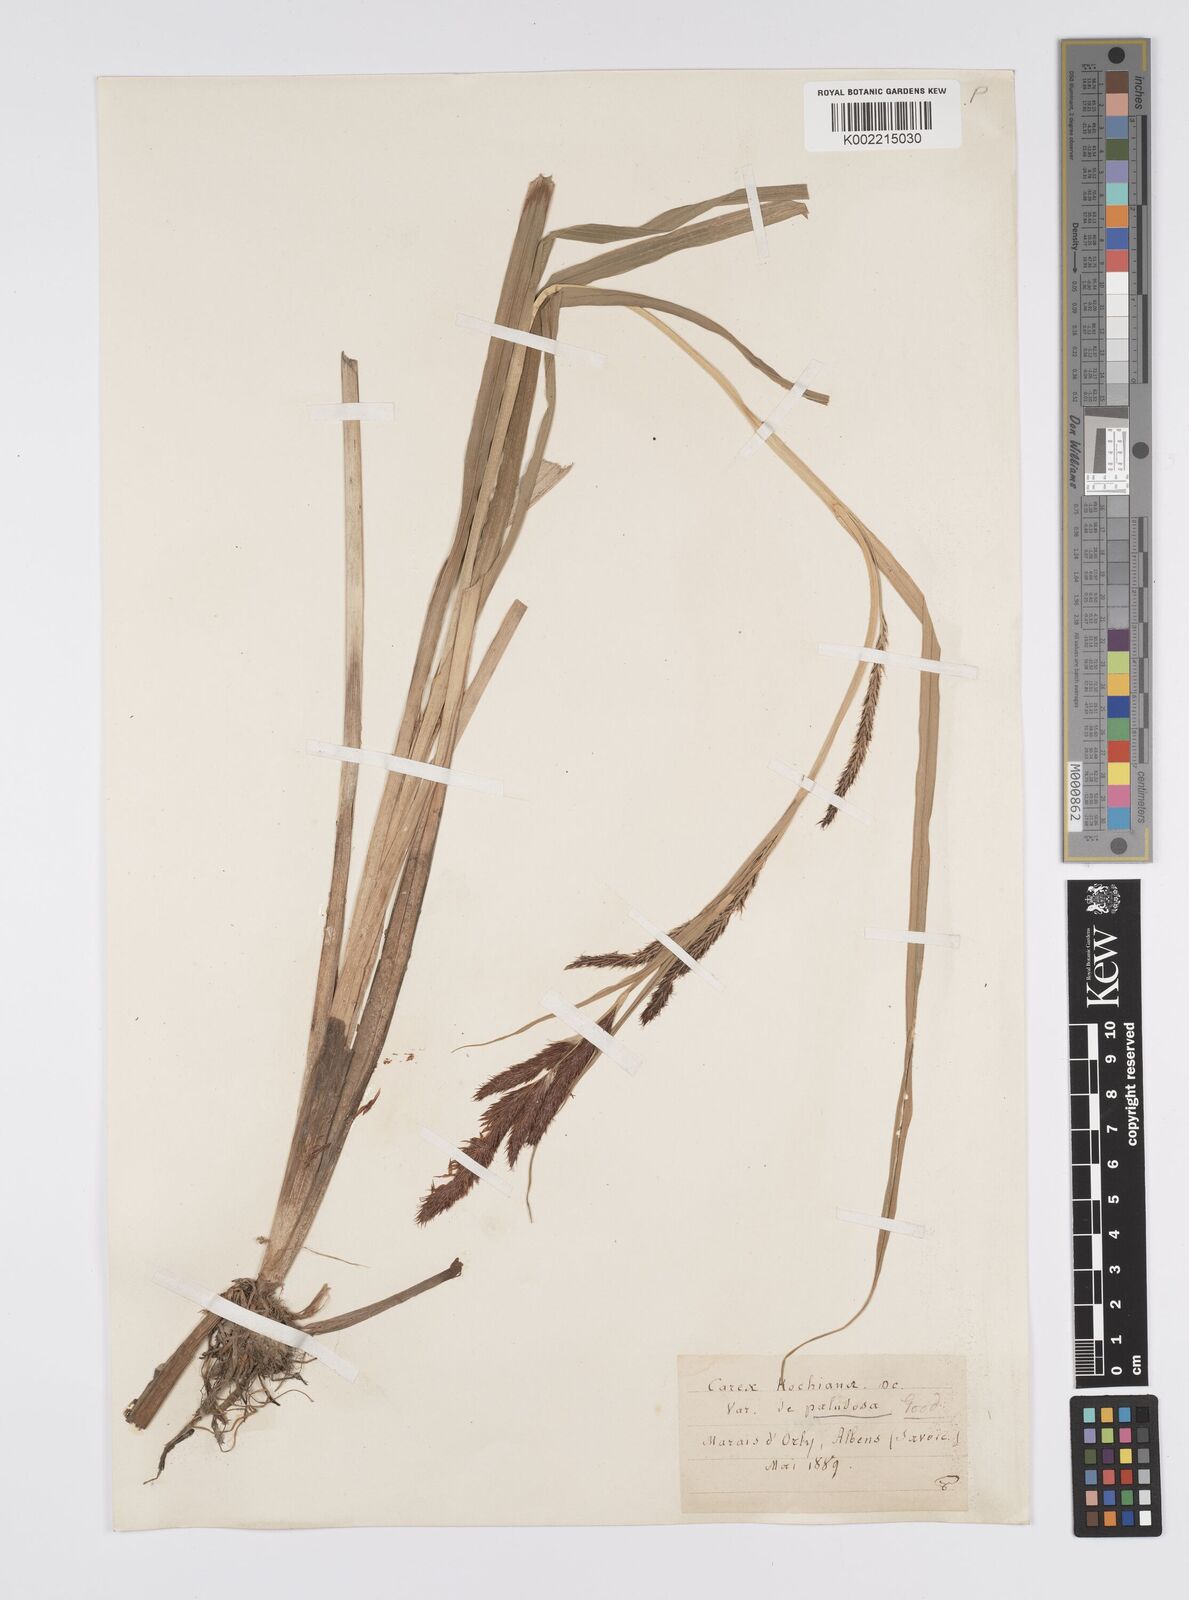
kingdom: Plantae
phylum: Tracheophyta
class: Liliopsida
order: Poales
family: Cyperaceae
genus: Carex
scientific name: Carex riparia
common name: Greater pond-sedge
